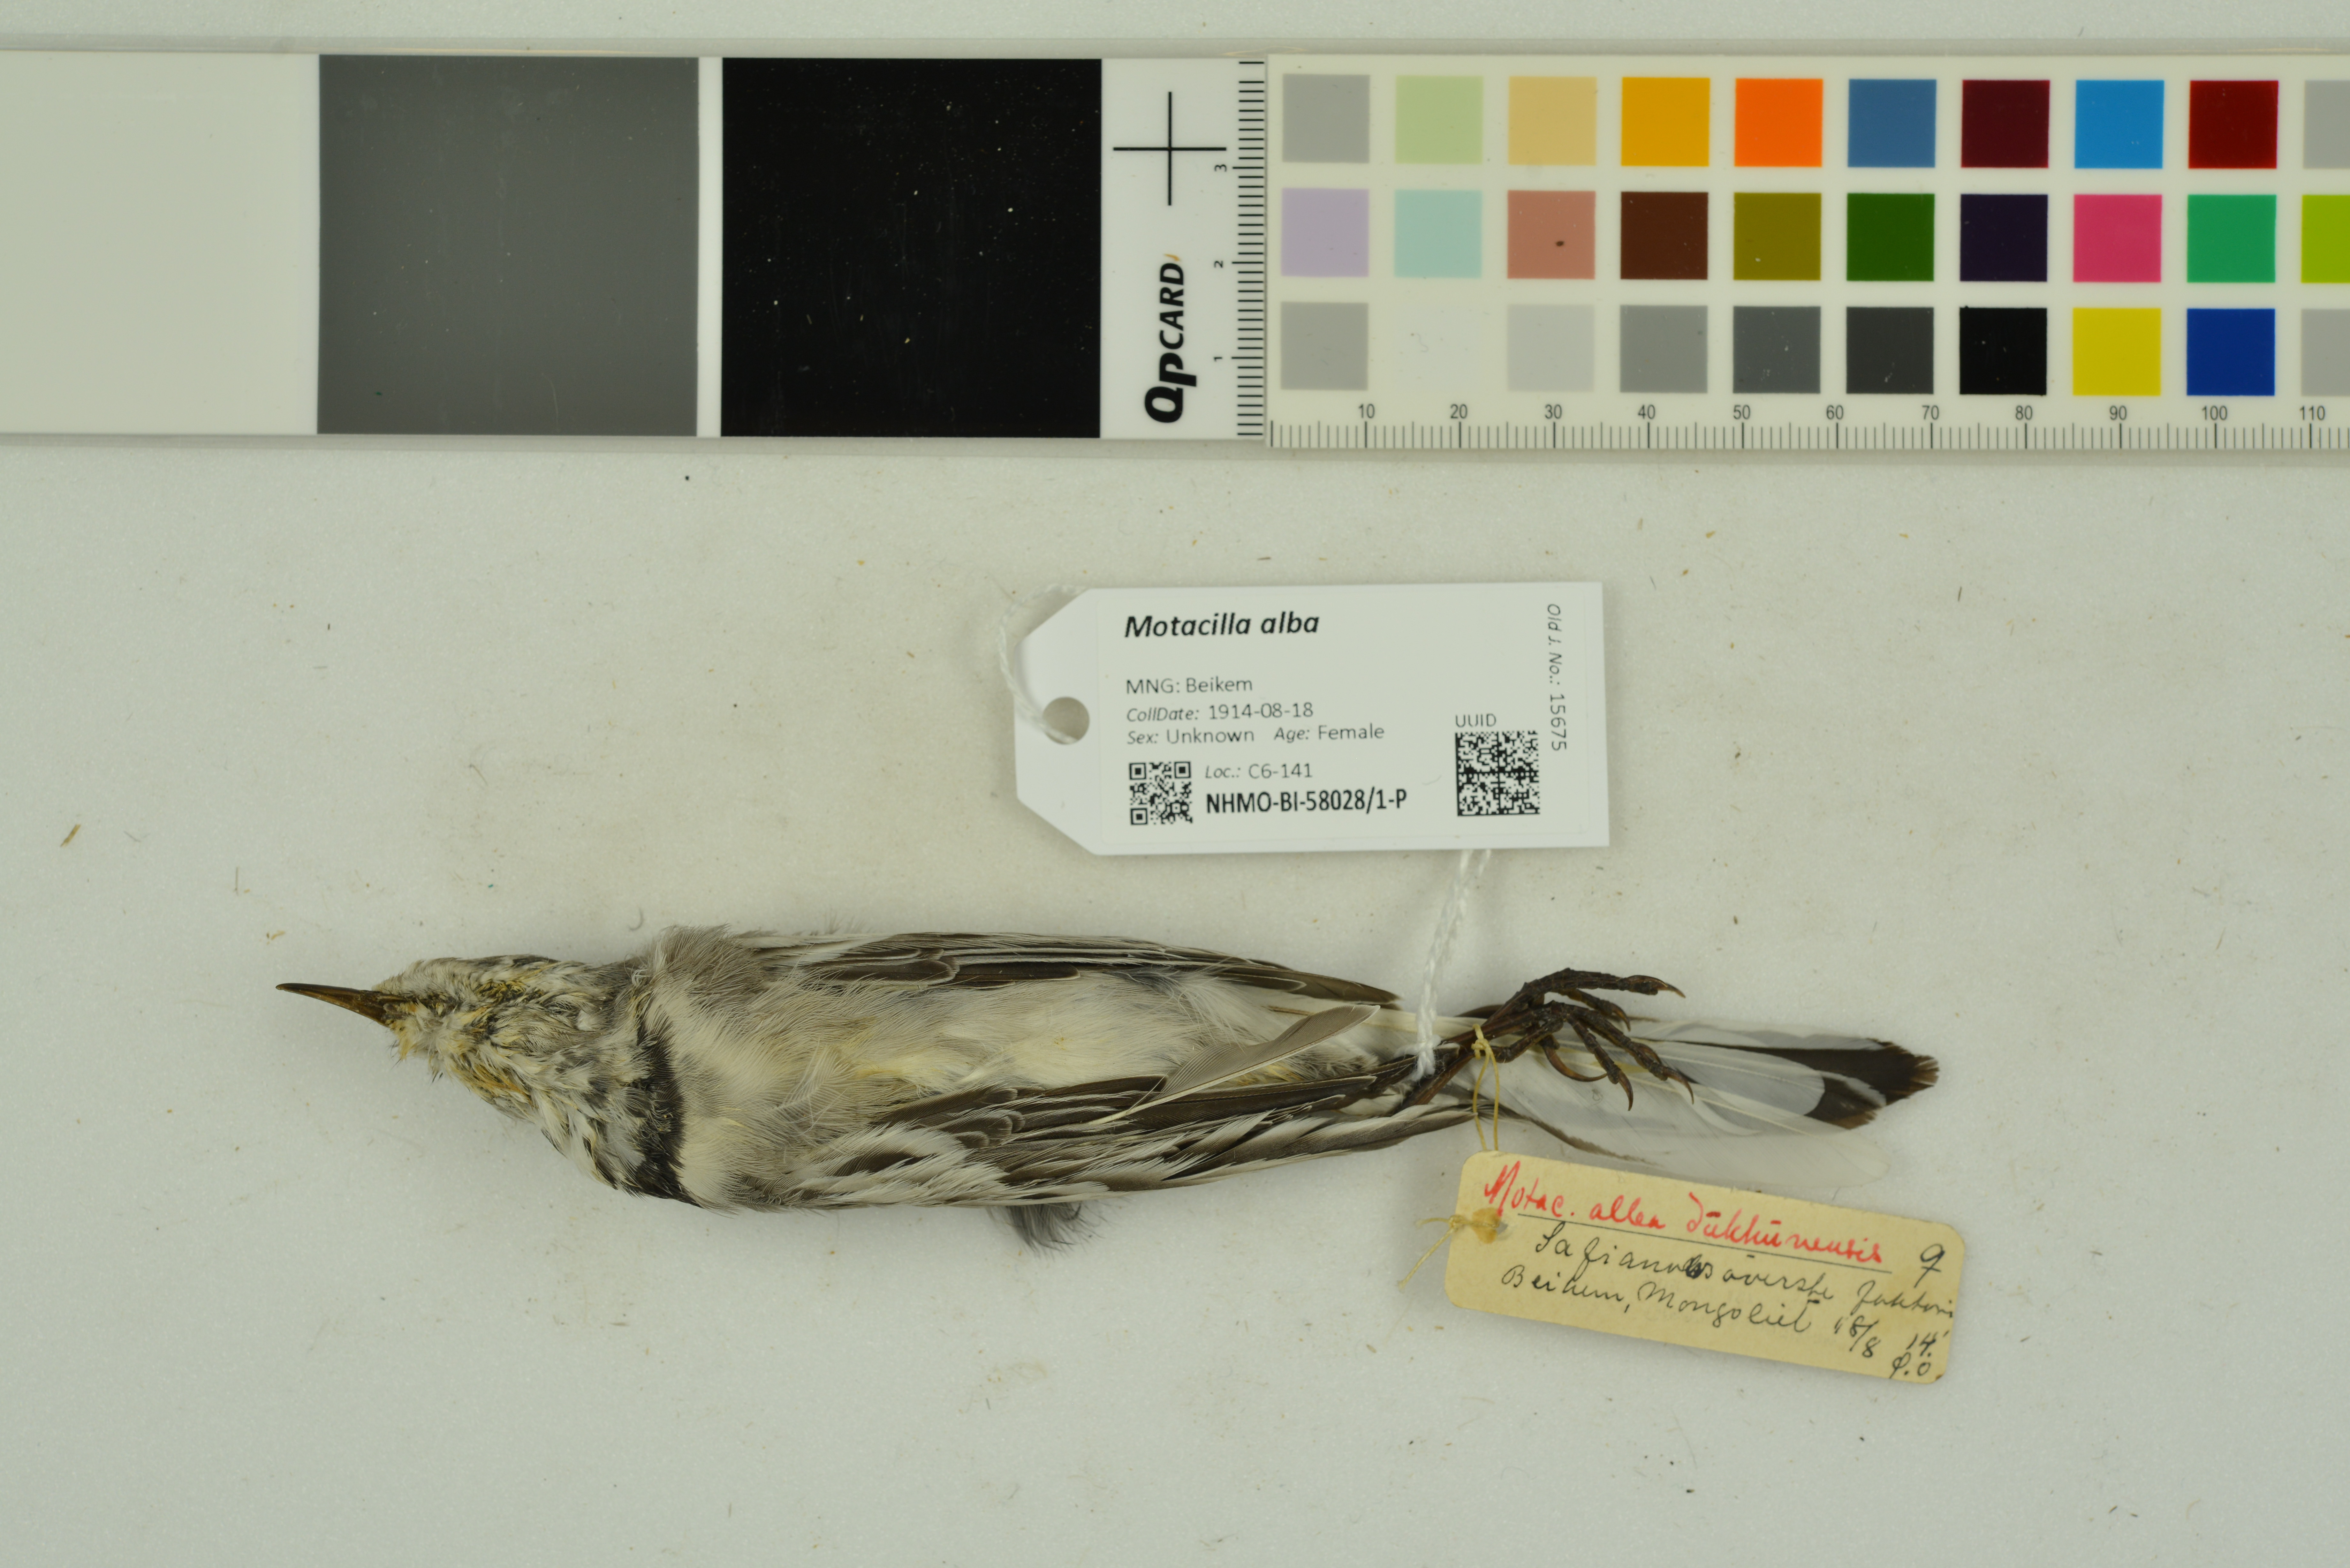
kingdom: Animalia
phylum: Chordata
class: Aves
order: Passeriformes
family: Motacillidae
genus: Motacilla
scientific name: Motacilla alba
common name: White wagtail
